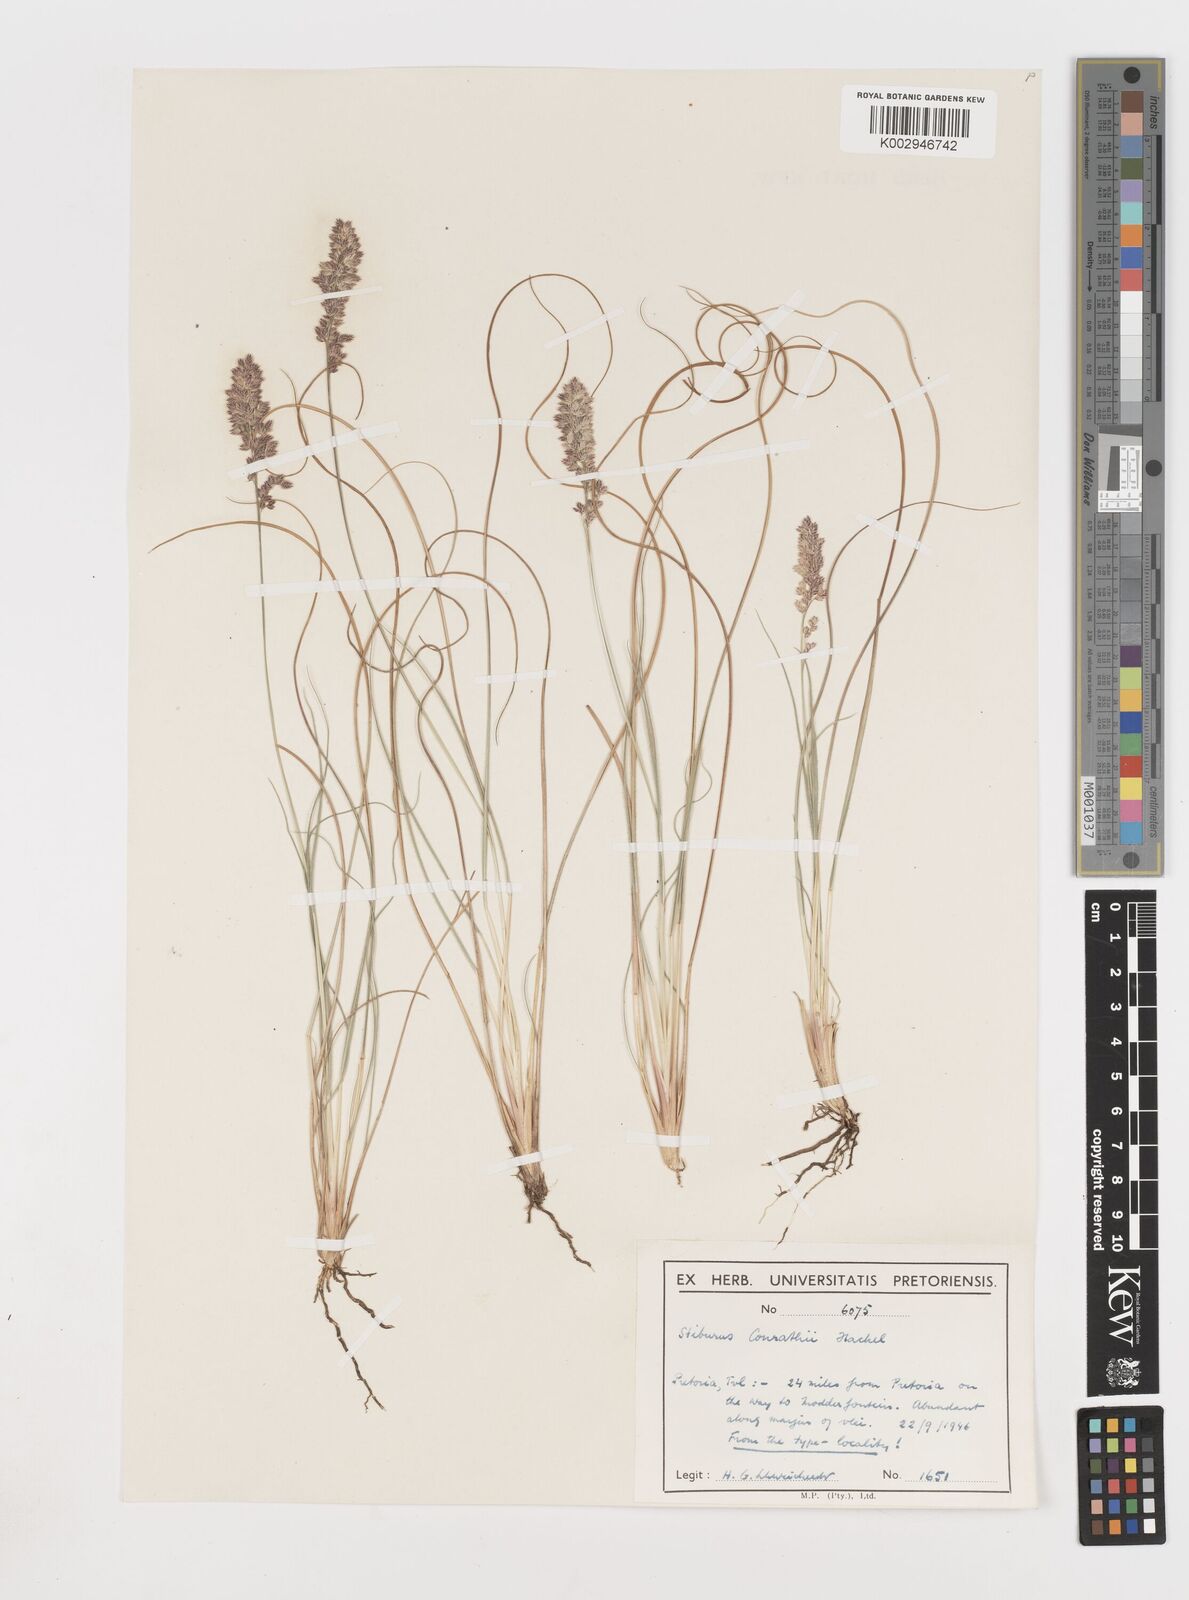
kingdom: Plantae
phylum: Tracheophyta
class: Liliopsida
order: Poales
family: Poaceae
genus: Stiburus
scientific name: Stiburus conrathii
